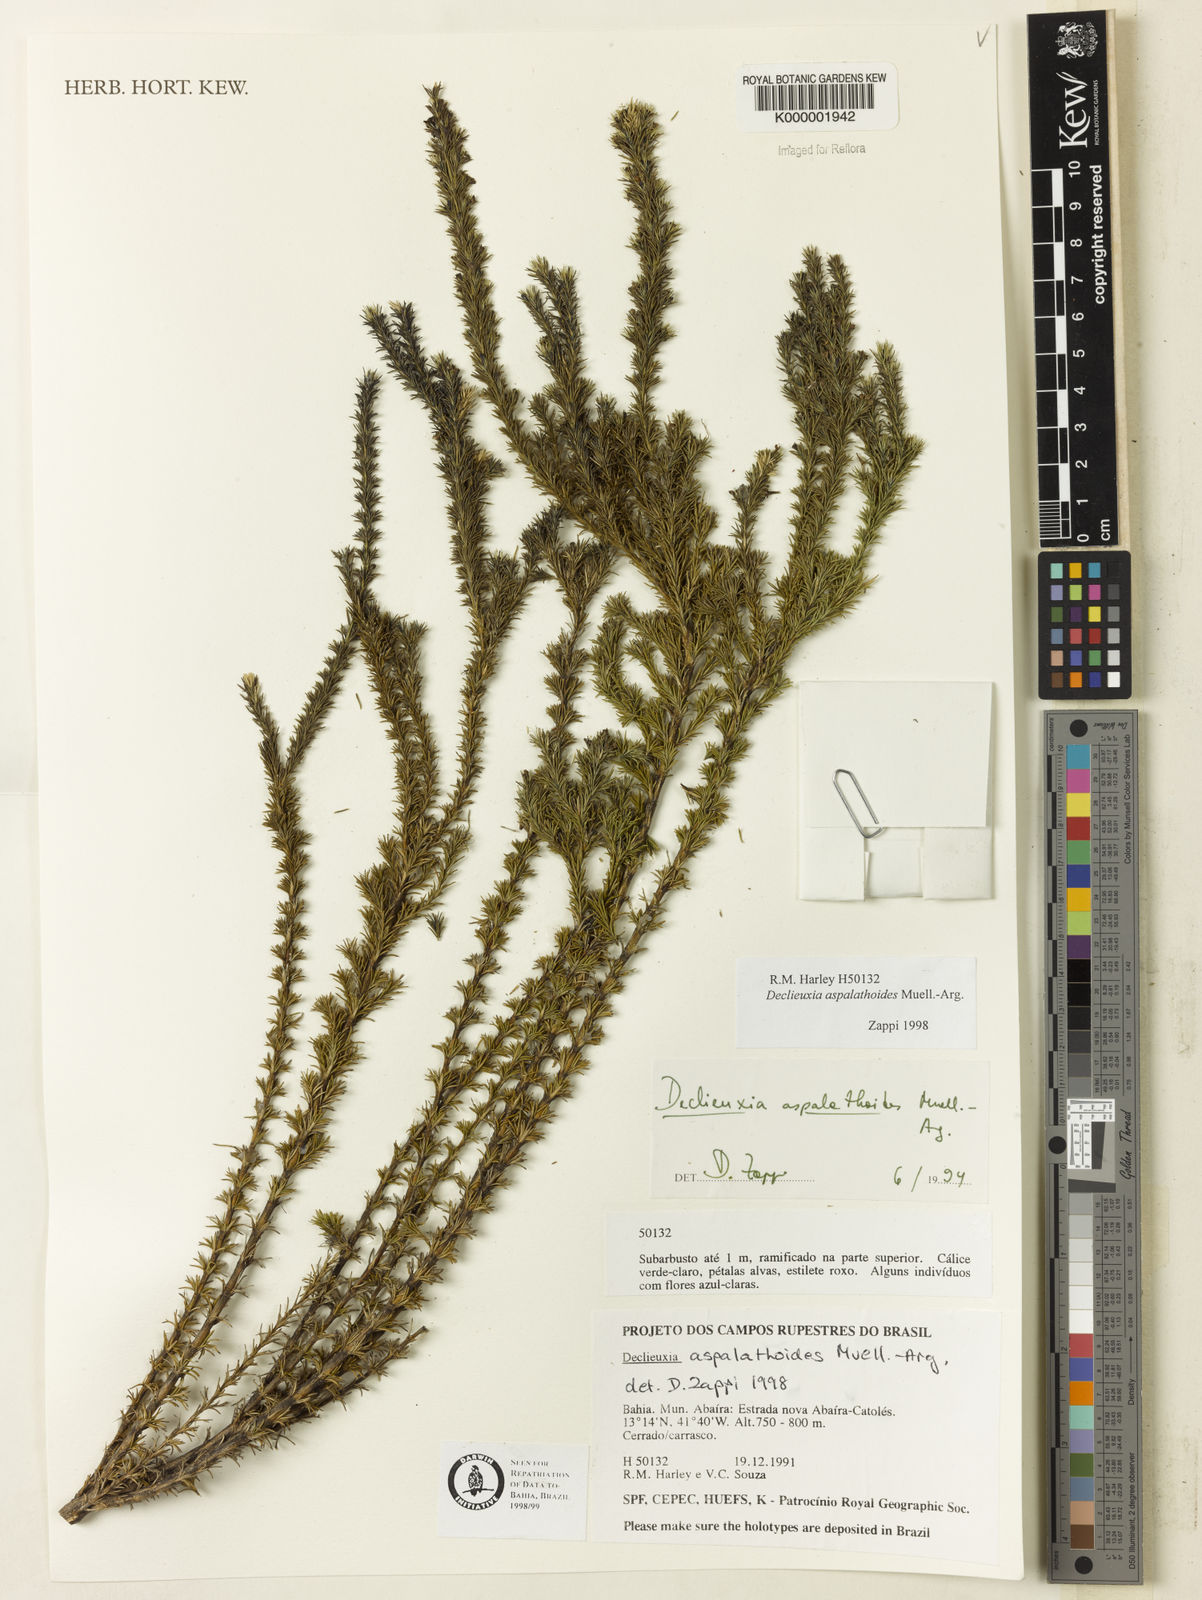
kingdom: Plantae
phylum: Tracheophyta
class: Magnoliopsida
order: Gentianales
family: Rubiaceae
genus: Declieuxia
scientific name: Declieuxia aspalathoides
